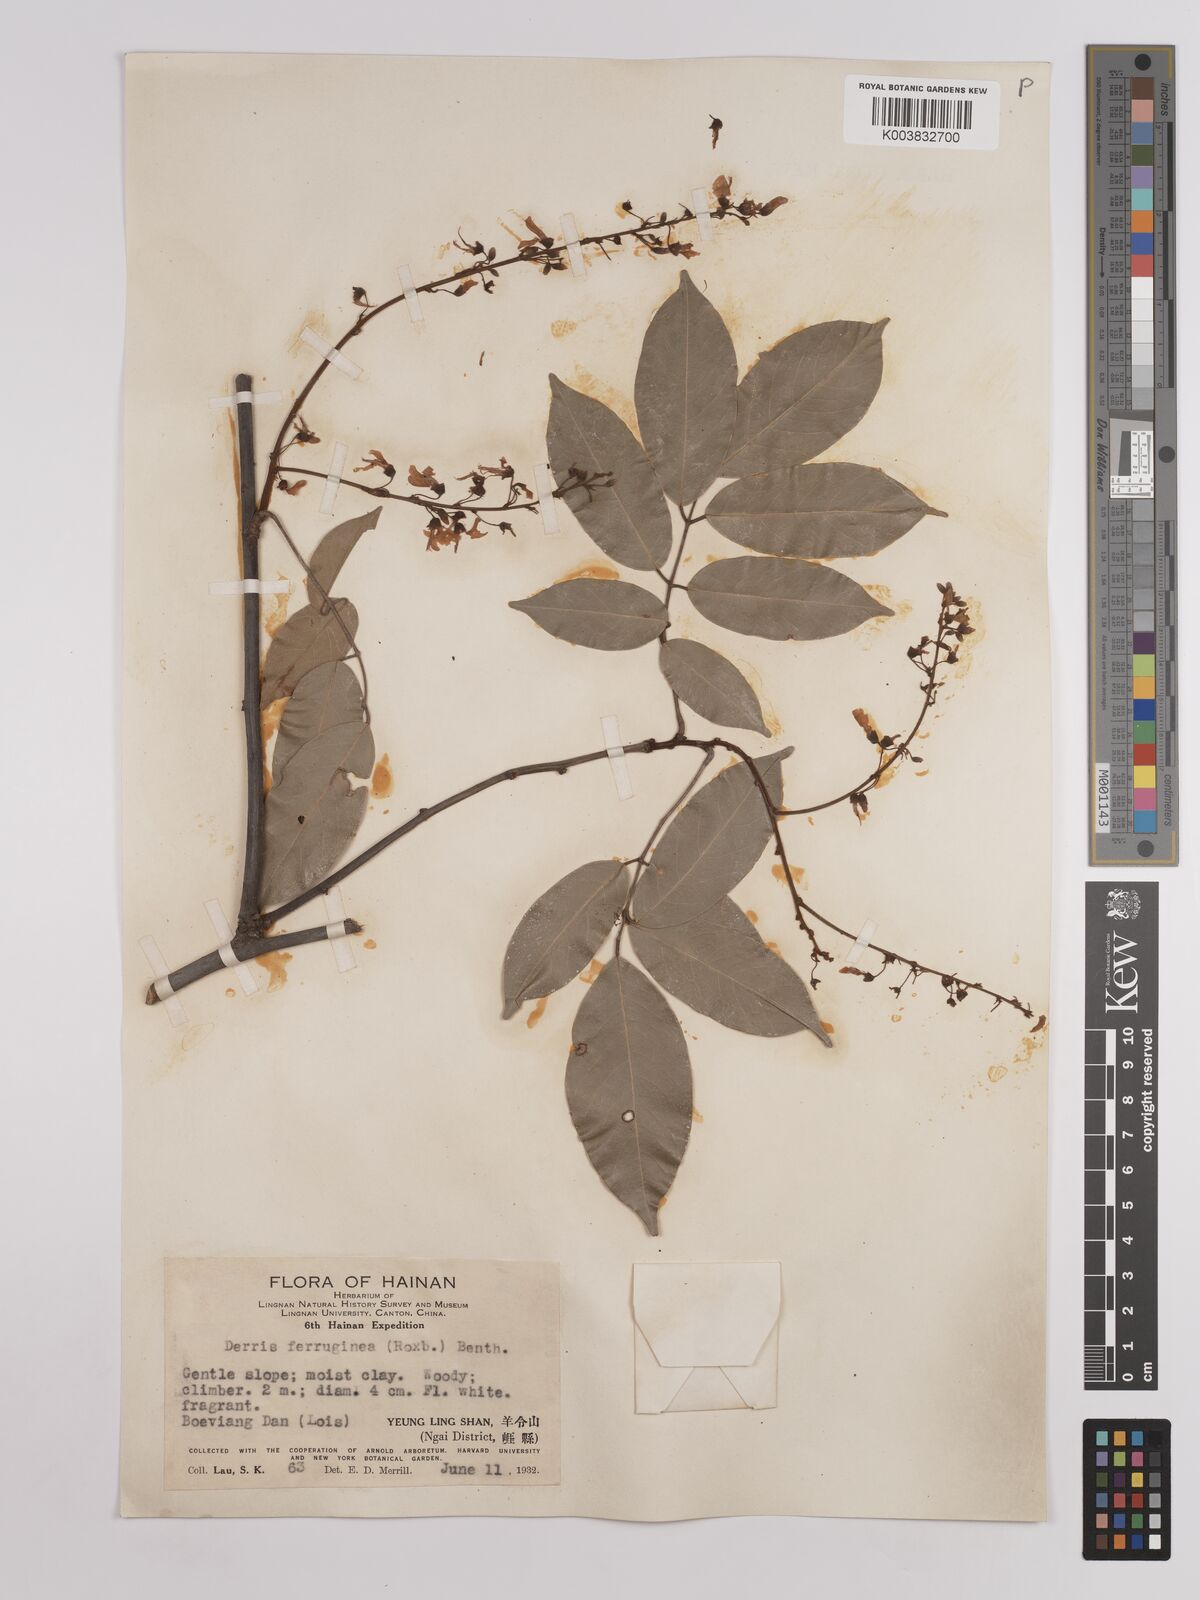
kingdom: Plantae
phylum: Tracheophyta
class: Magnoliopsida
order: Fabales
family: Fabaceae
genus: Derris
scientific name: Derris ferruginea
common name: Indian tubaroot
